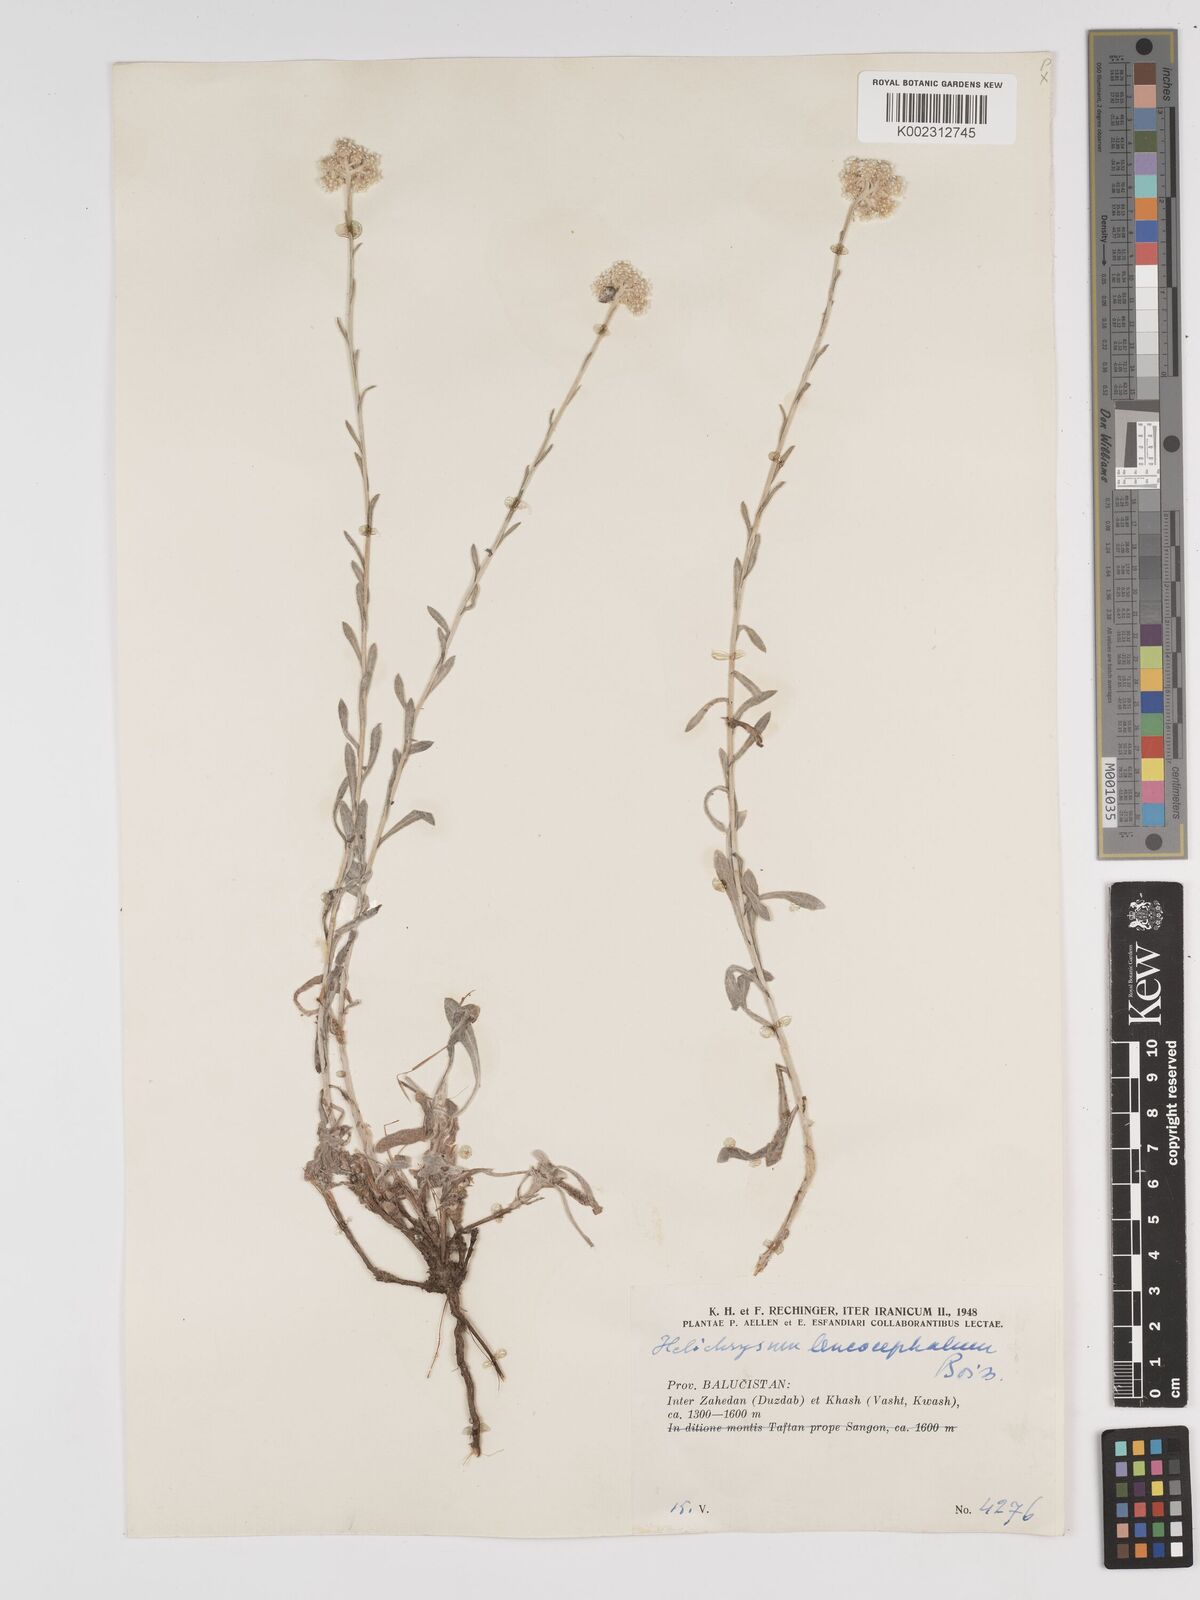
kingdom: Plantae
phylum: Tracheophyta
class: Magnoliopsida
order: Asterales
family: Asteraceae
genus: Helichrysum
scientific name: Helichrysum leucocephalum
